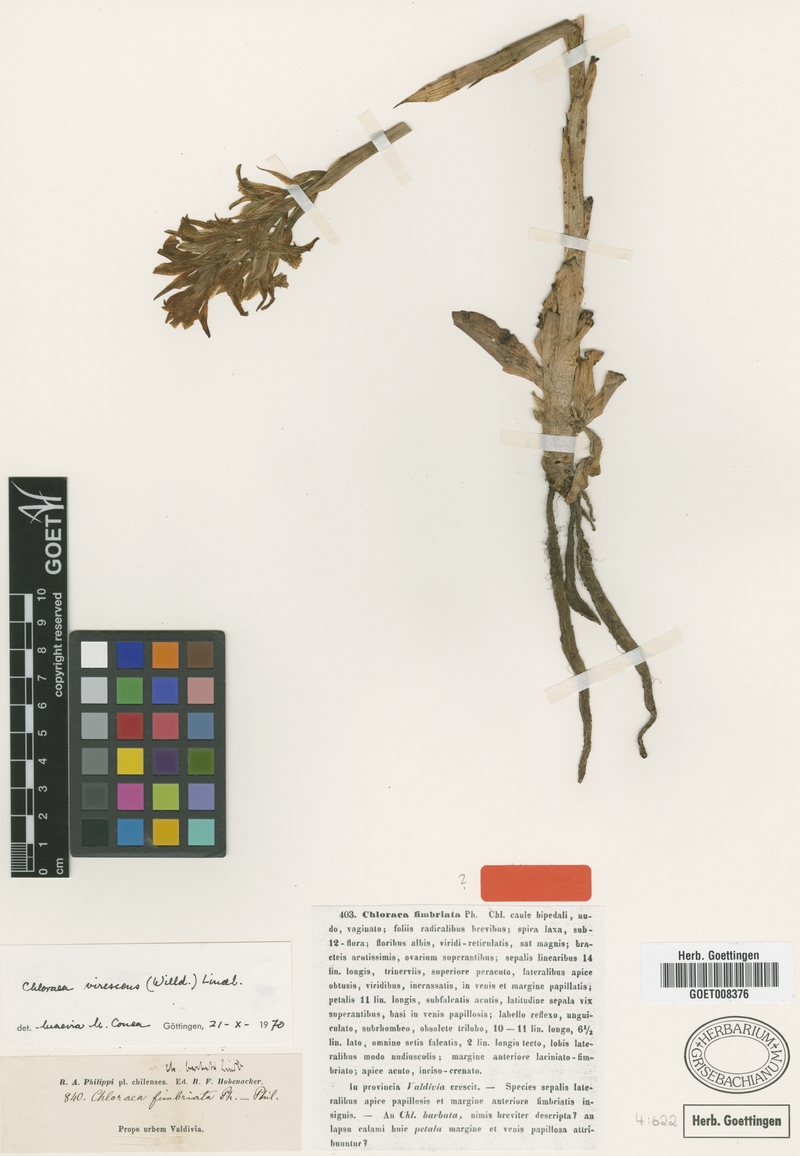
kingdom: Plantae
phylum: Tracheophyta
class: Liliopsida
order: Asparagales
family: Orchidaceae
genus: Chloraea
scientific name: Chloraea piquichen
